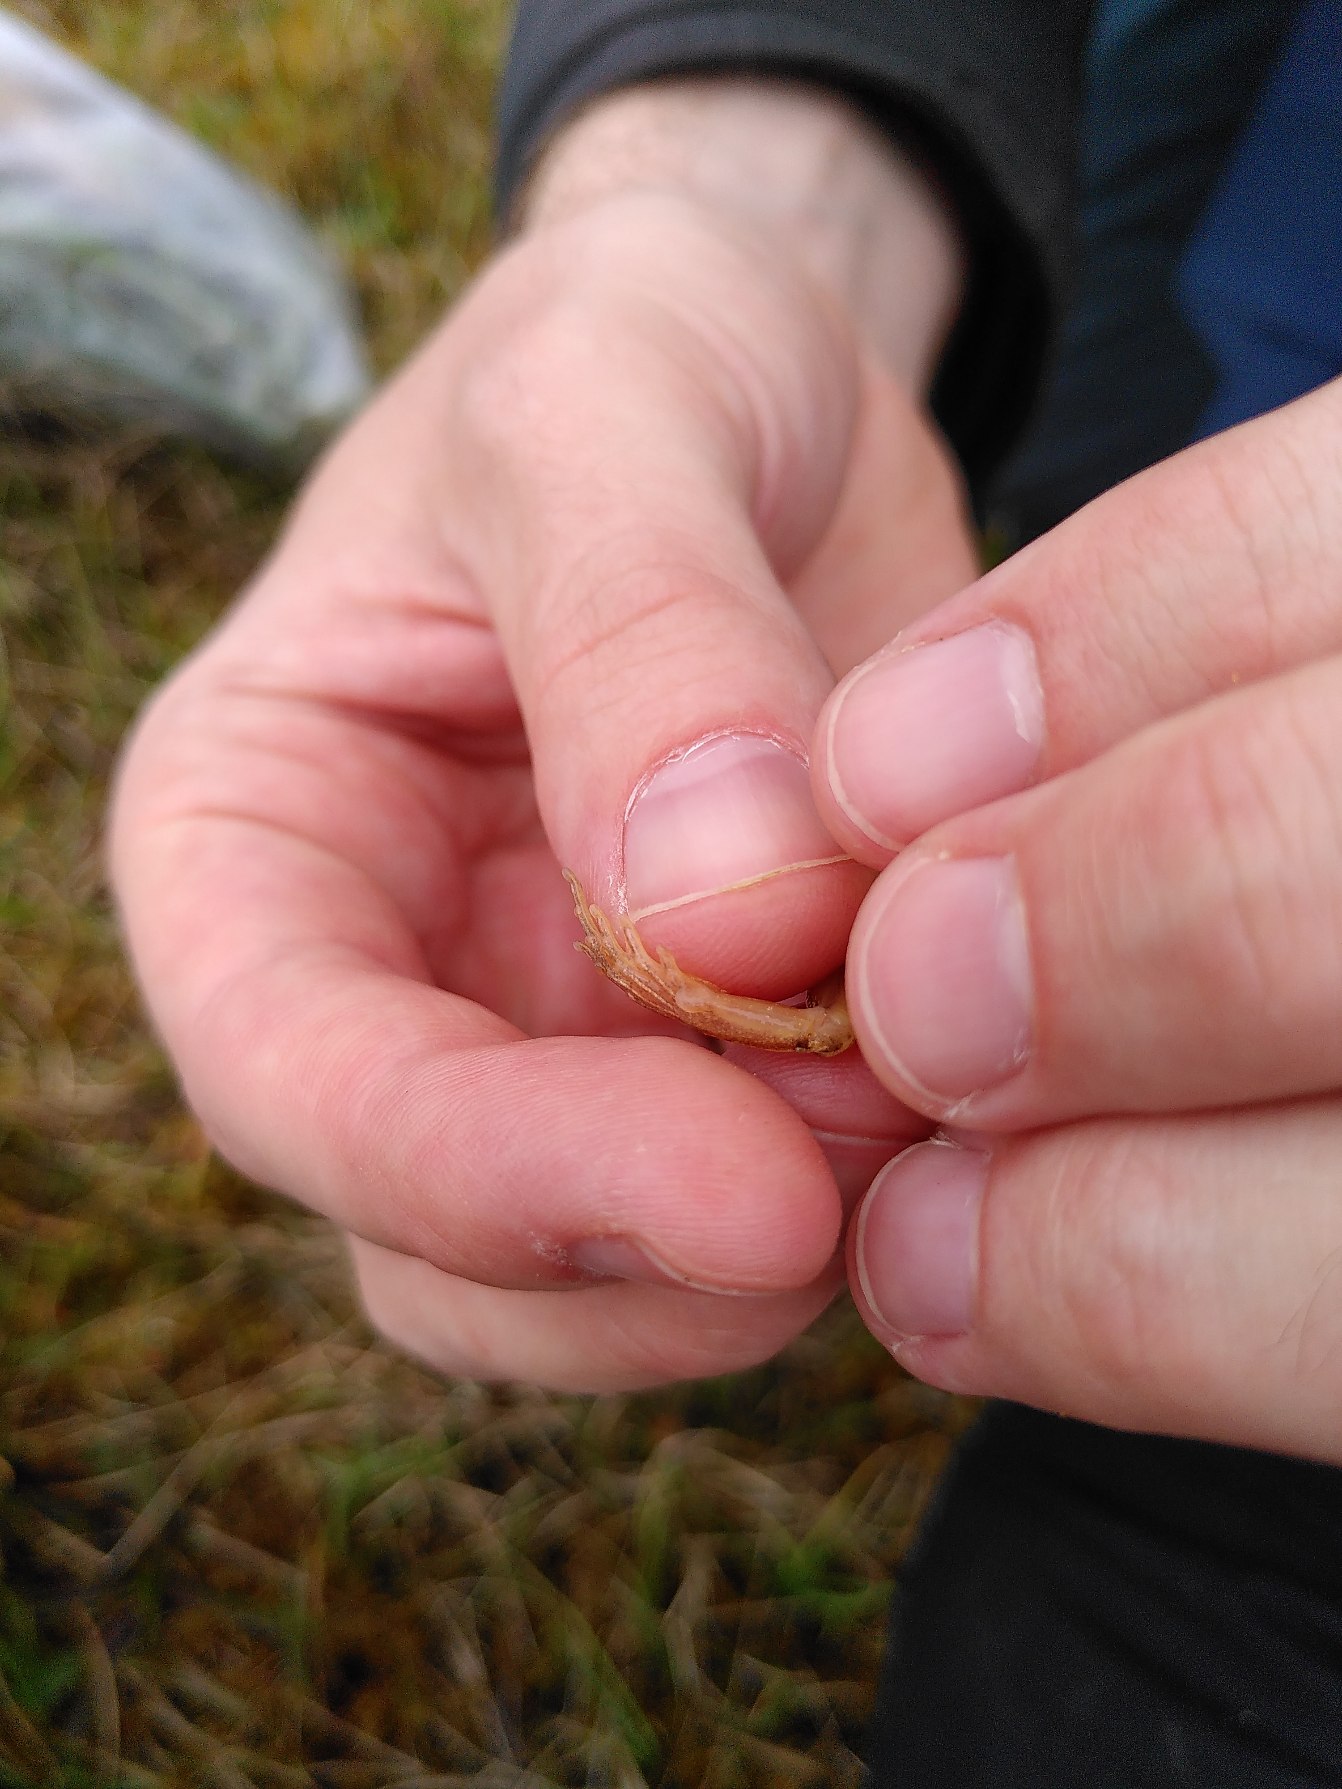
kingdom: Animalia
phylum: Chordata
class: Amphibia
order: Anura
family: Ranidae
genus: Rana
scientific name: Rana arvalis
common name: Spidssnudet frø
